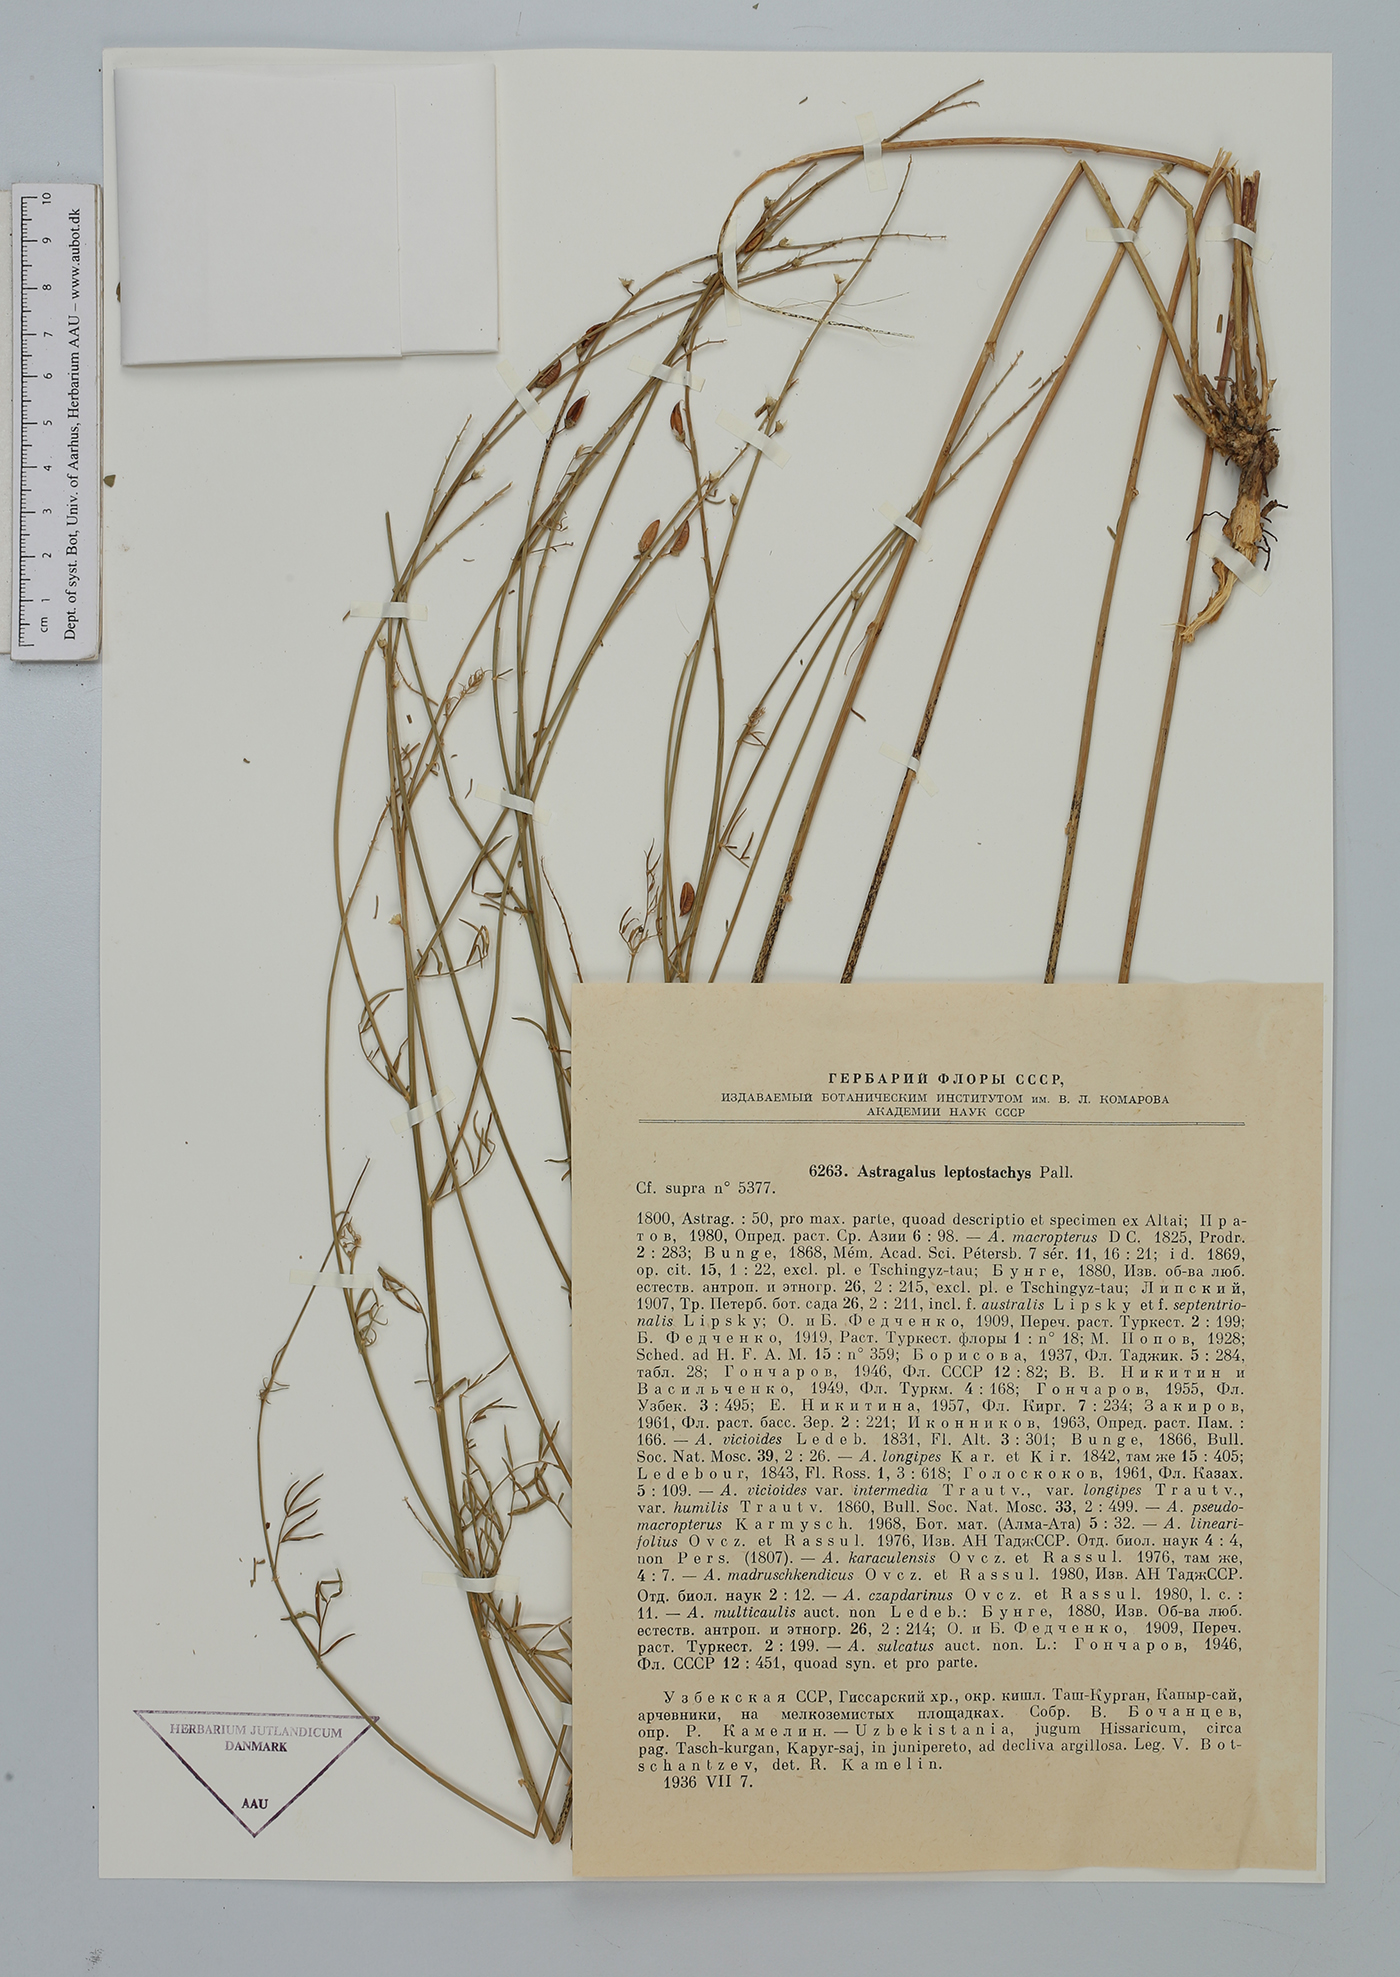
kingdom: Plantae
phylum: Tracheophyta
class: Magnoliopsida
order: Fabales
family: Fabaceae
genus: Astragalus
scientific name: Astragalus sulcatus
